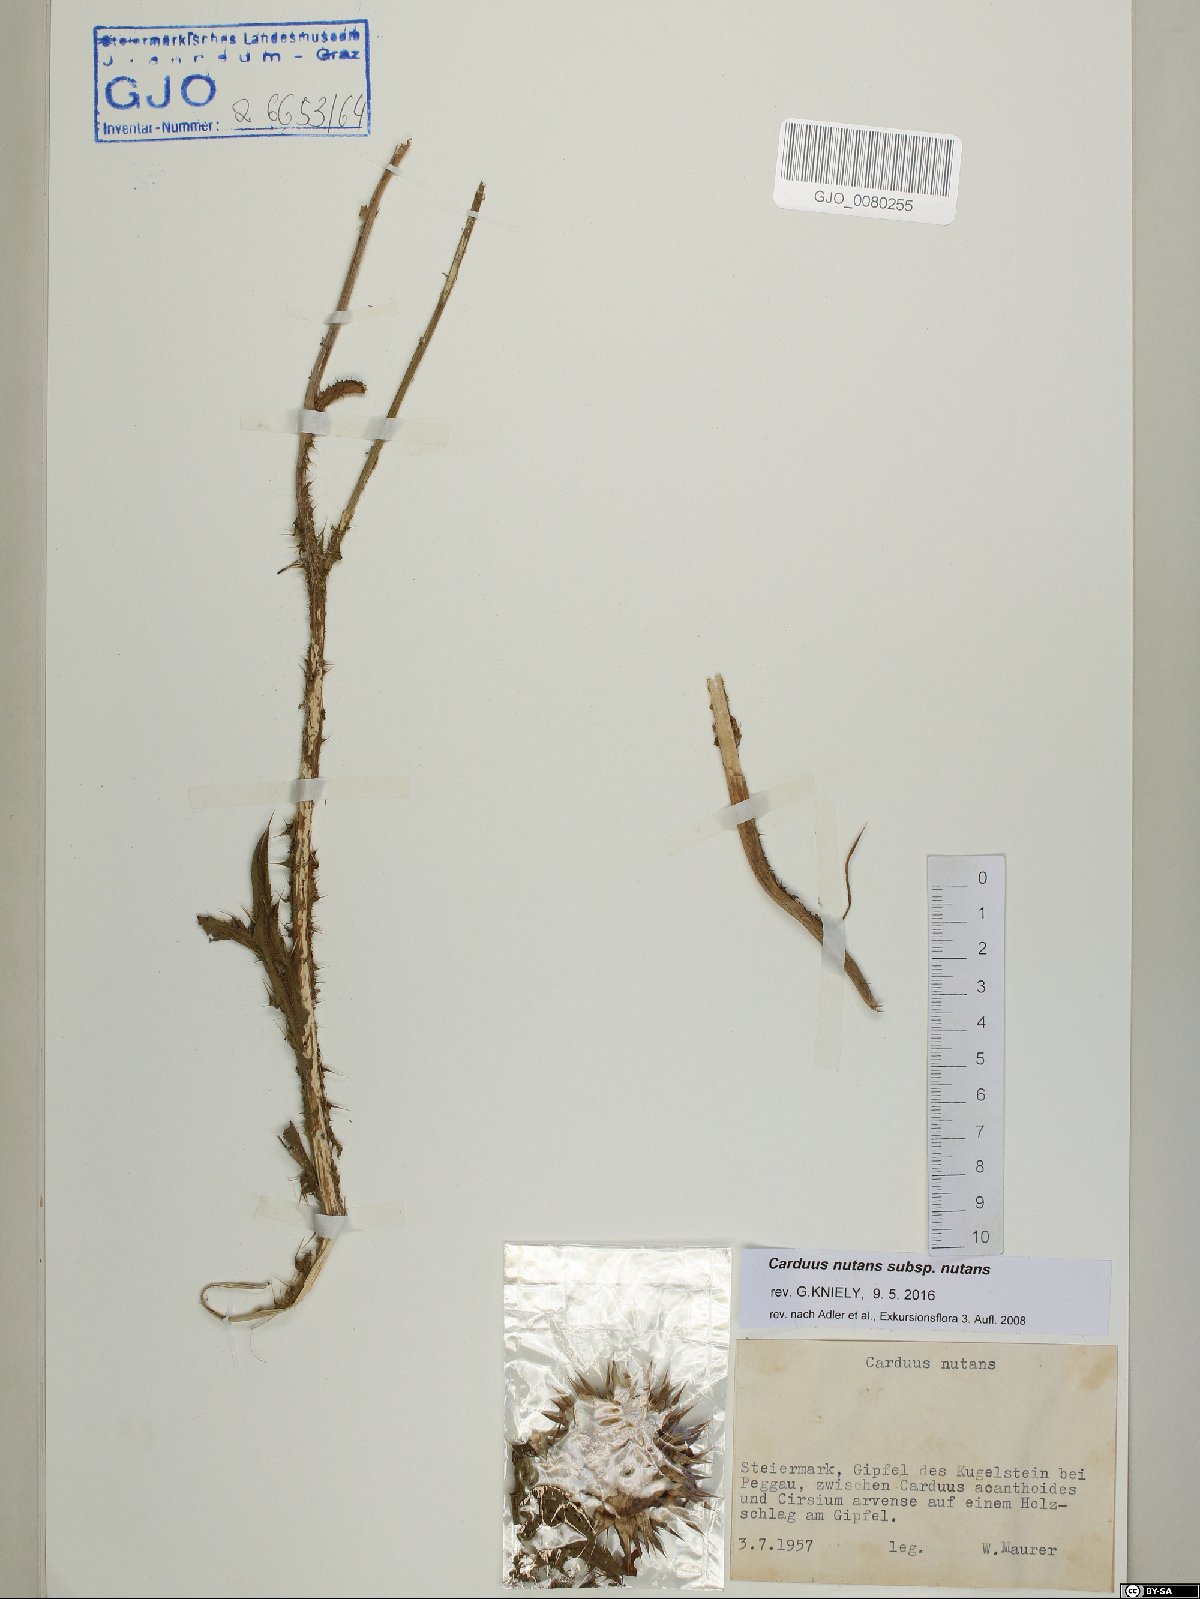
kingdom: Plantae
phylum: Tracheophyta
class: Magnoliopsida
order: Asterales
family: Asteraceae
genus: Carduus
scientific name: Carduus nutans
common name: Musk thistle
